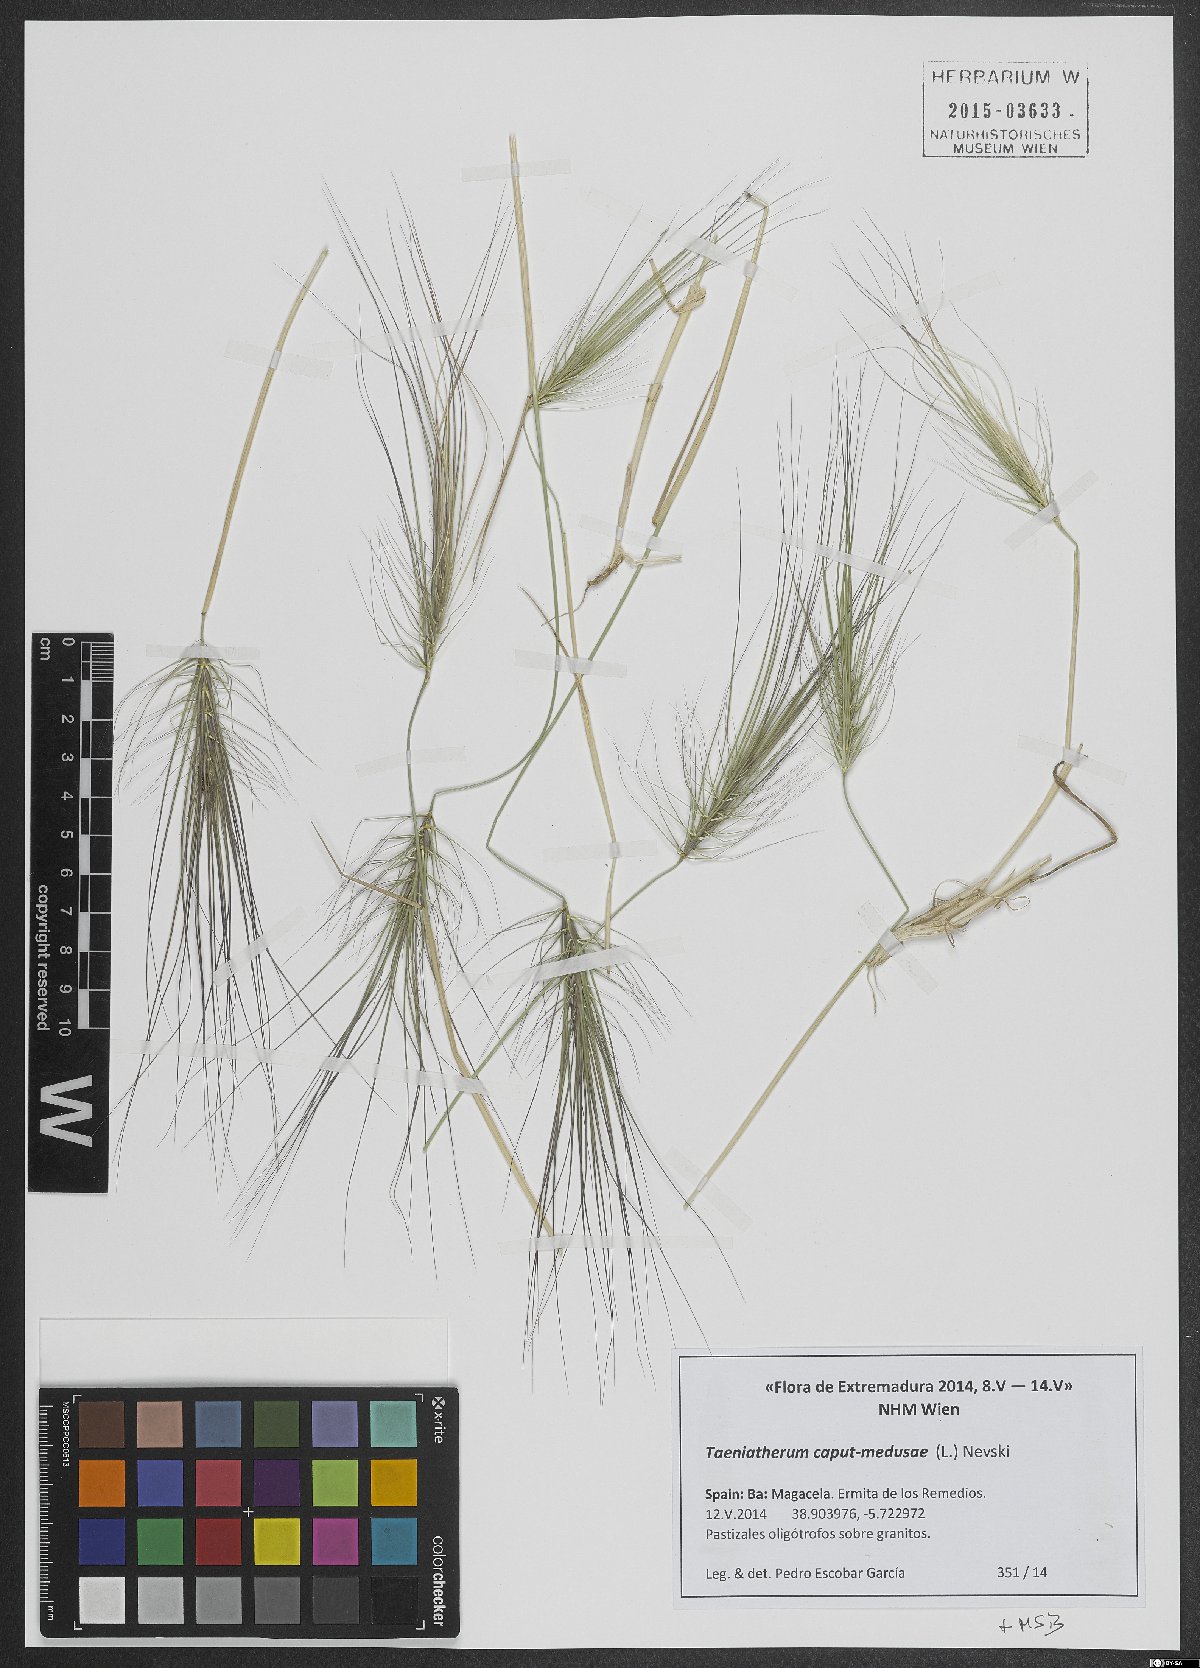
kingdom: Plantae
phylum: Tracheophyta
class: Liliopsida
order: Poales
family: Poaceae
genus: Taeniatherum
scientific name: Taeniatherum caput-medusae
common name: Medusahead
